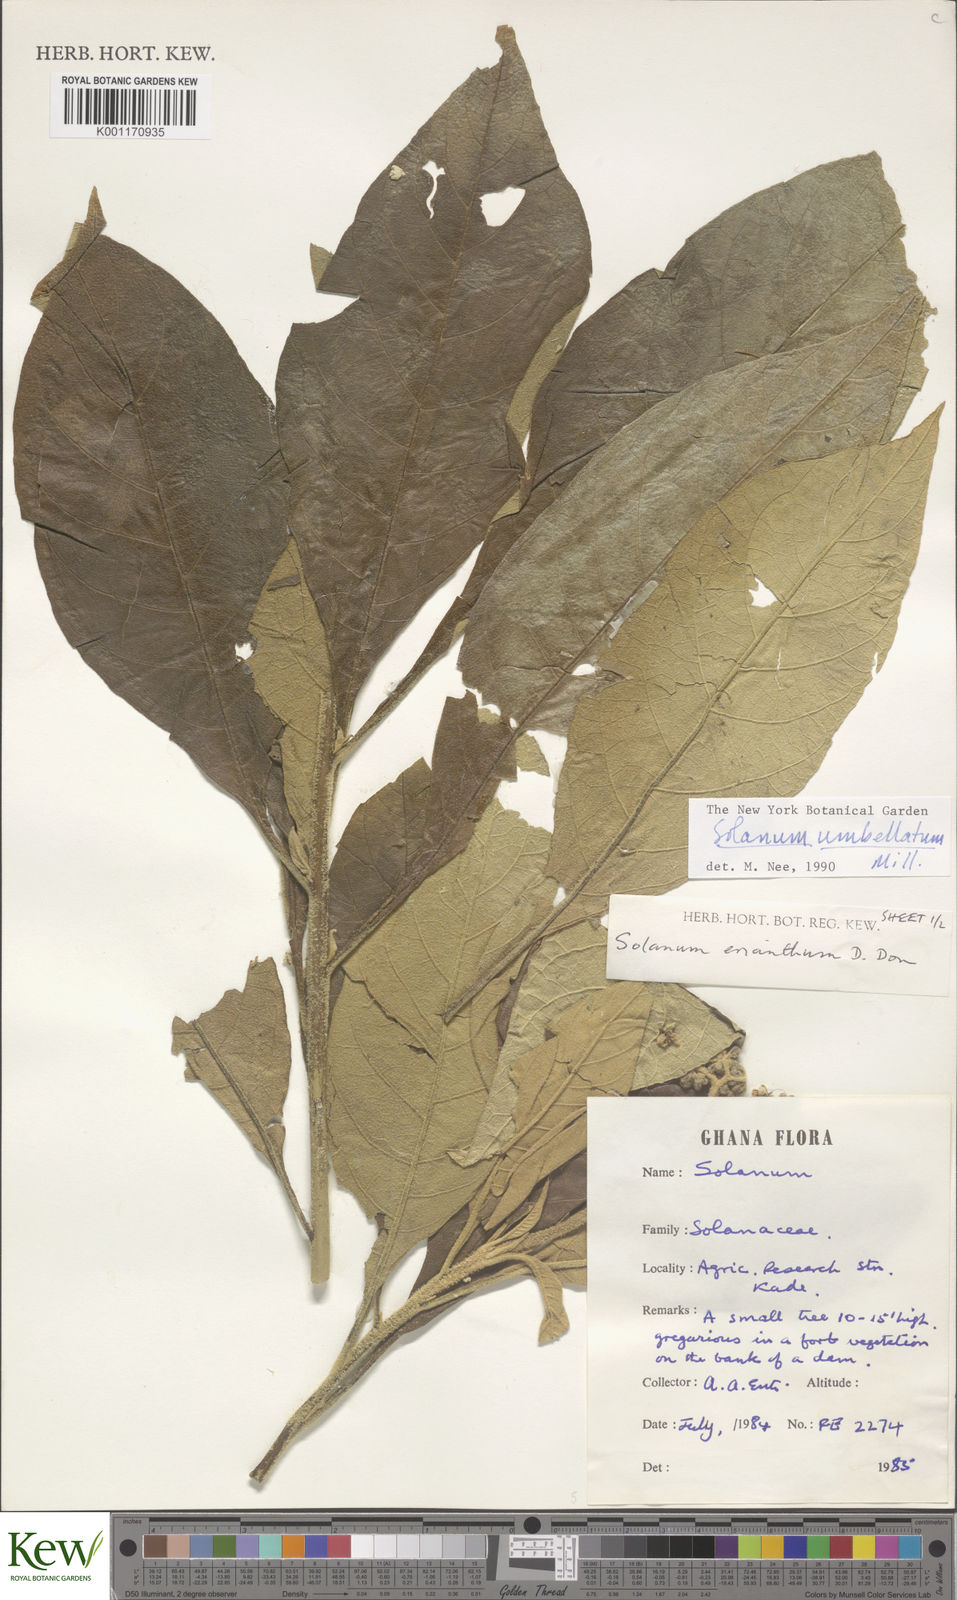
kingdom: Plantae
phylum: Tracheophyta
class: Magnoliopsida
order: Solanales
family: Solanaceae
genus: Solanum
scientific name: Solanum umbellatum
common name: Nightshade
